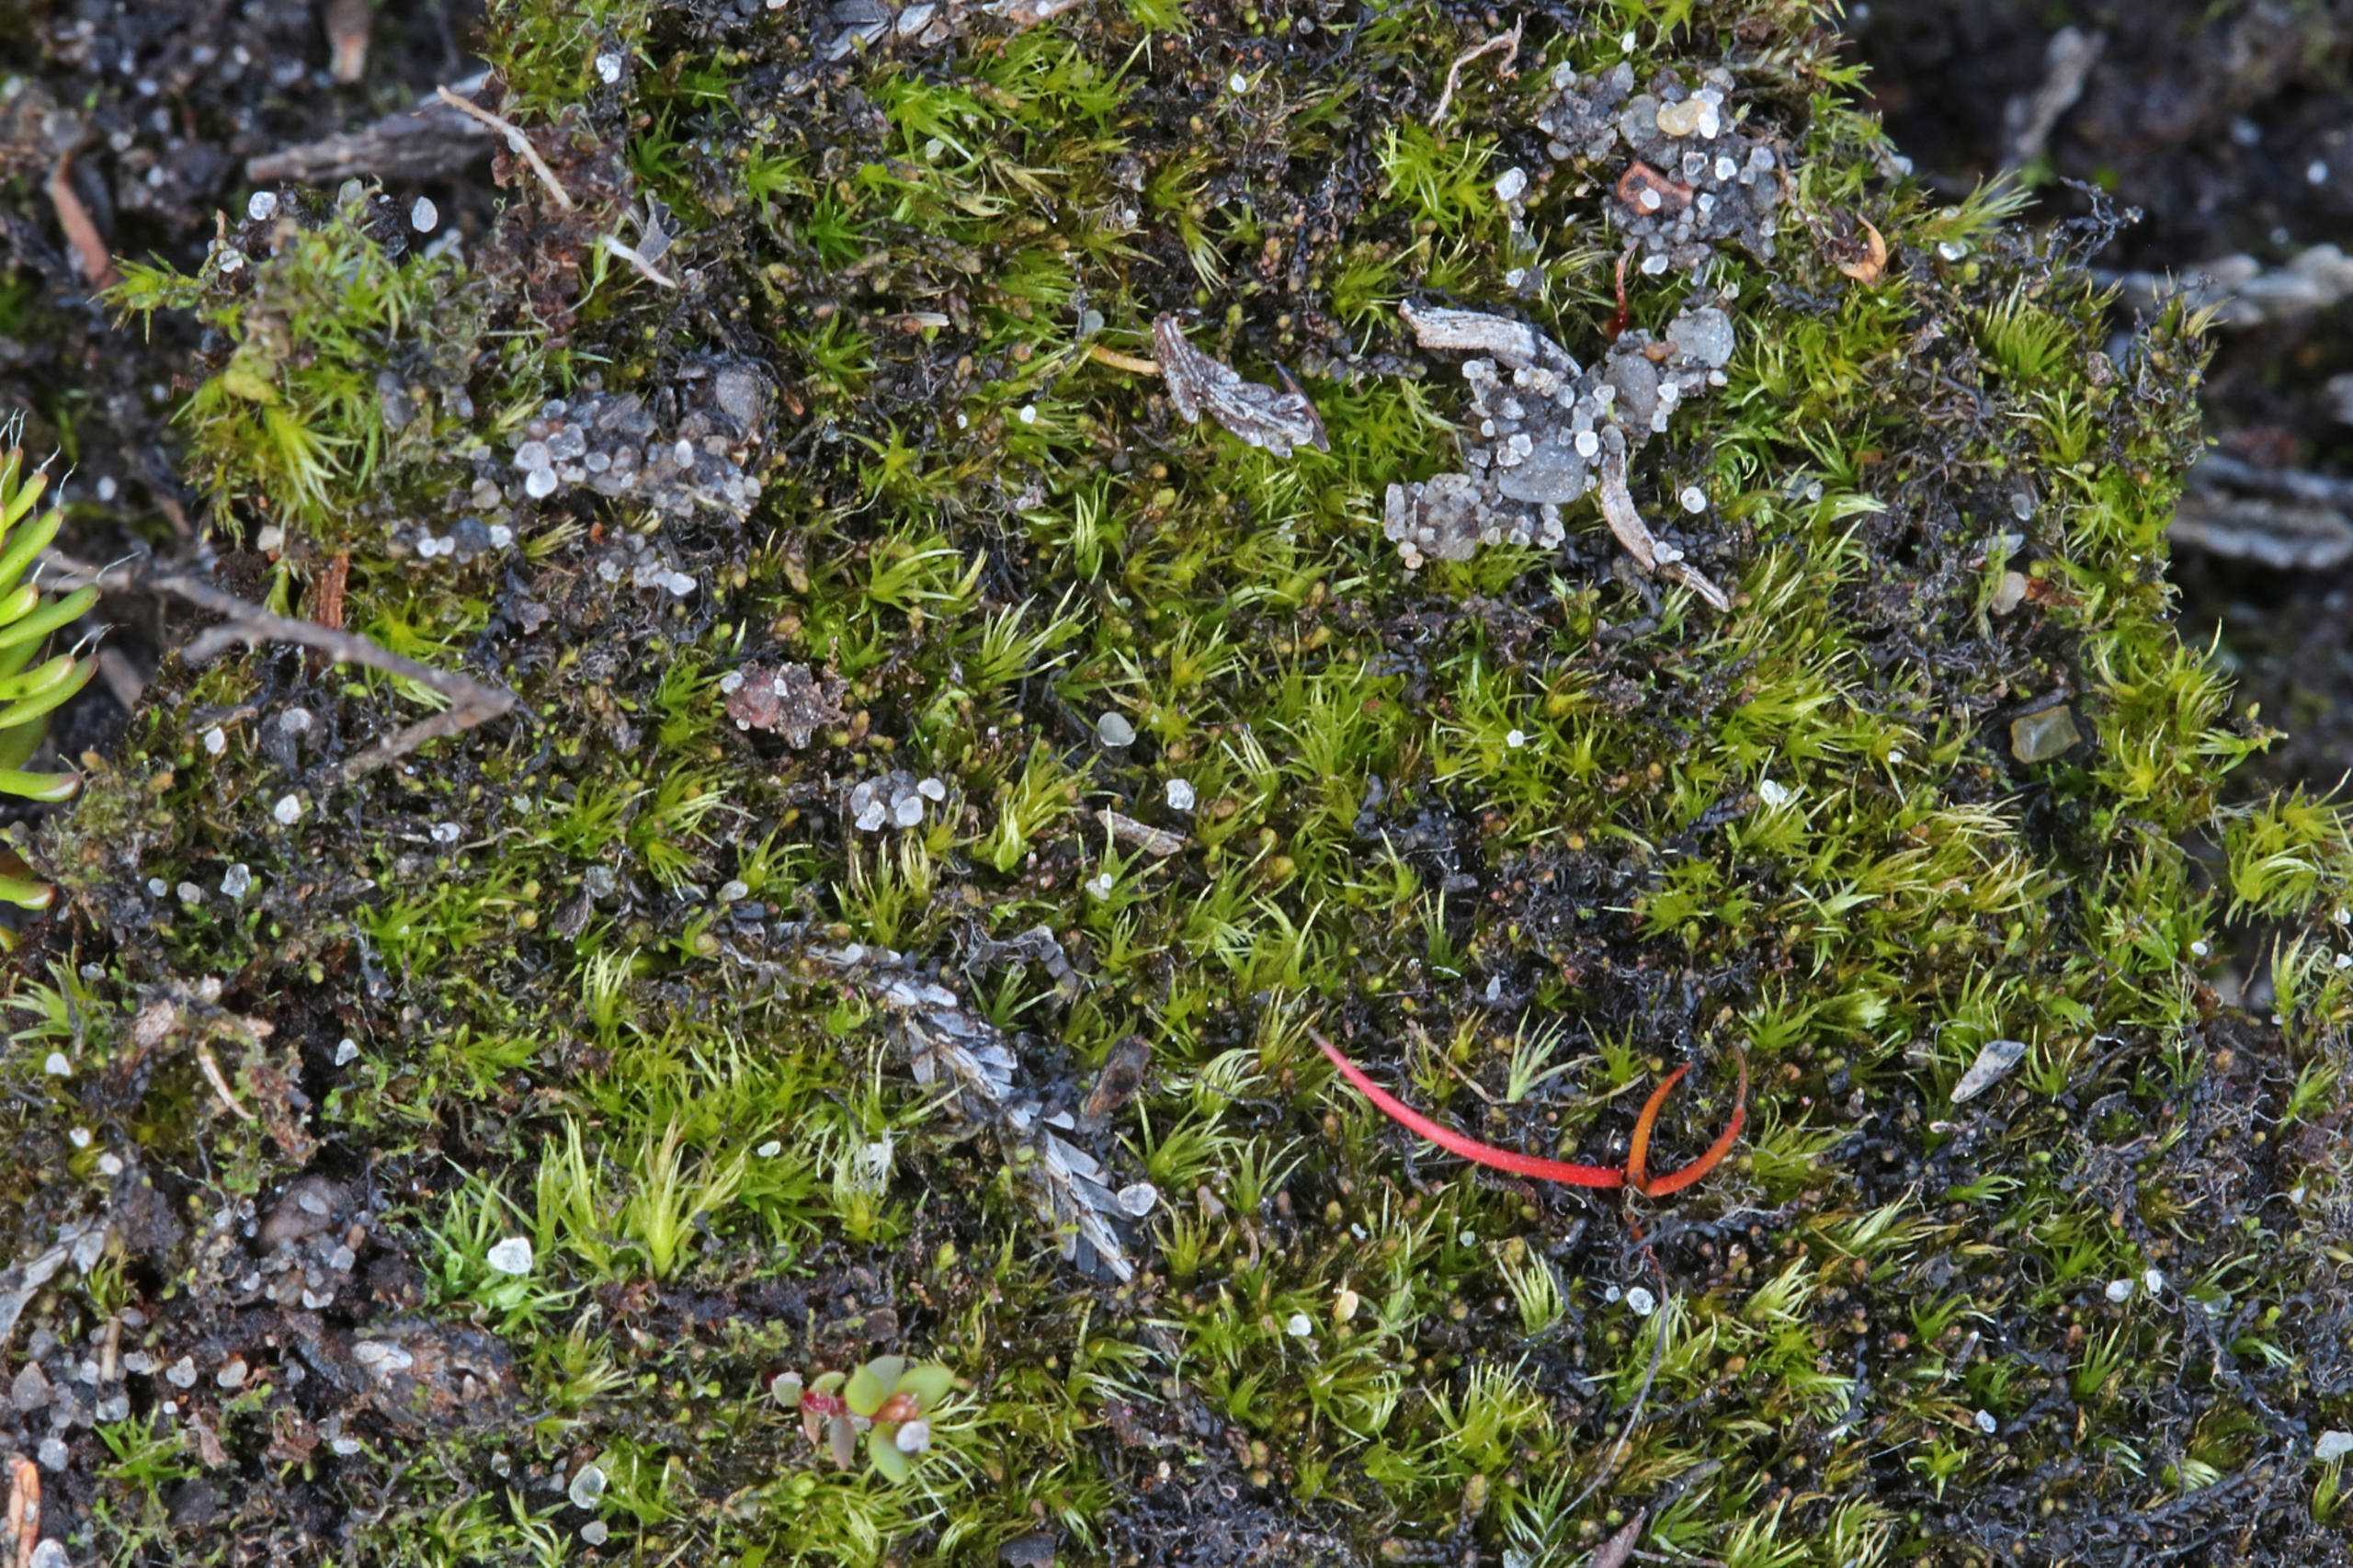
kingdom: Plantae
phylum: Bryophyta
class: Bryopsida
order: Archidiales
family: Archidiaceae
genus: Archidium
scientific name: Archidium alternifolium
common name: Stor sporemos
